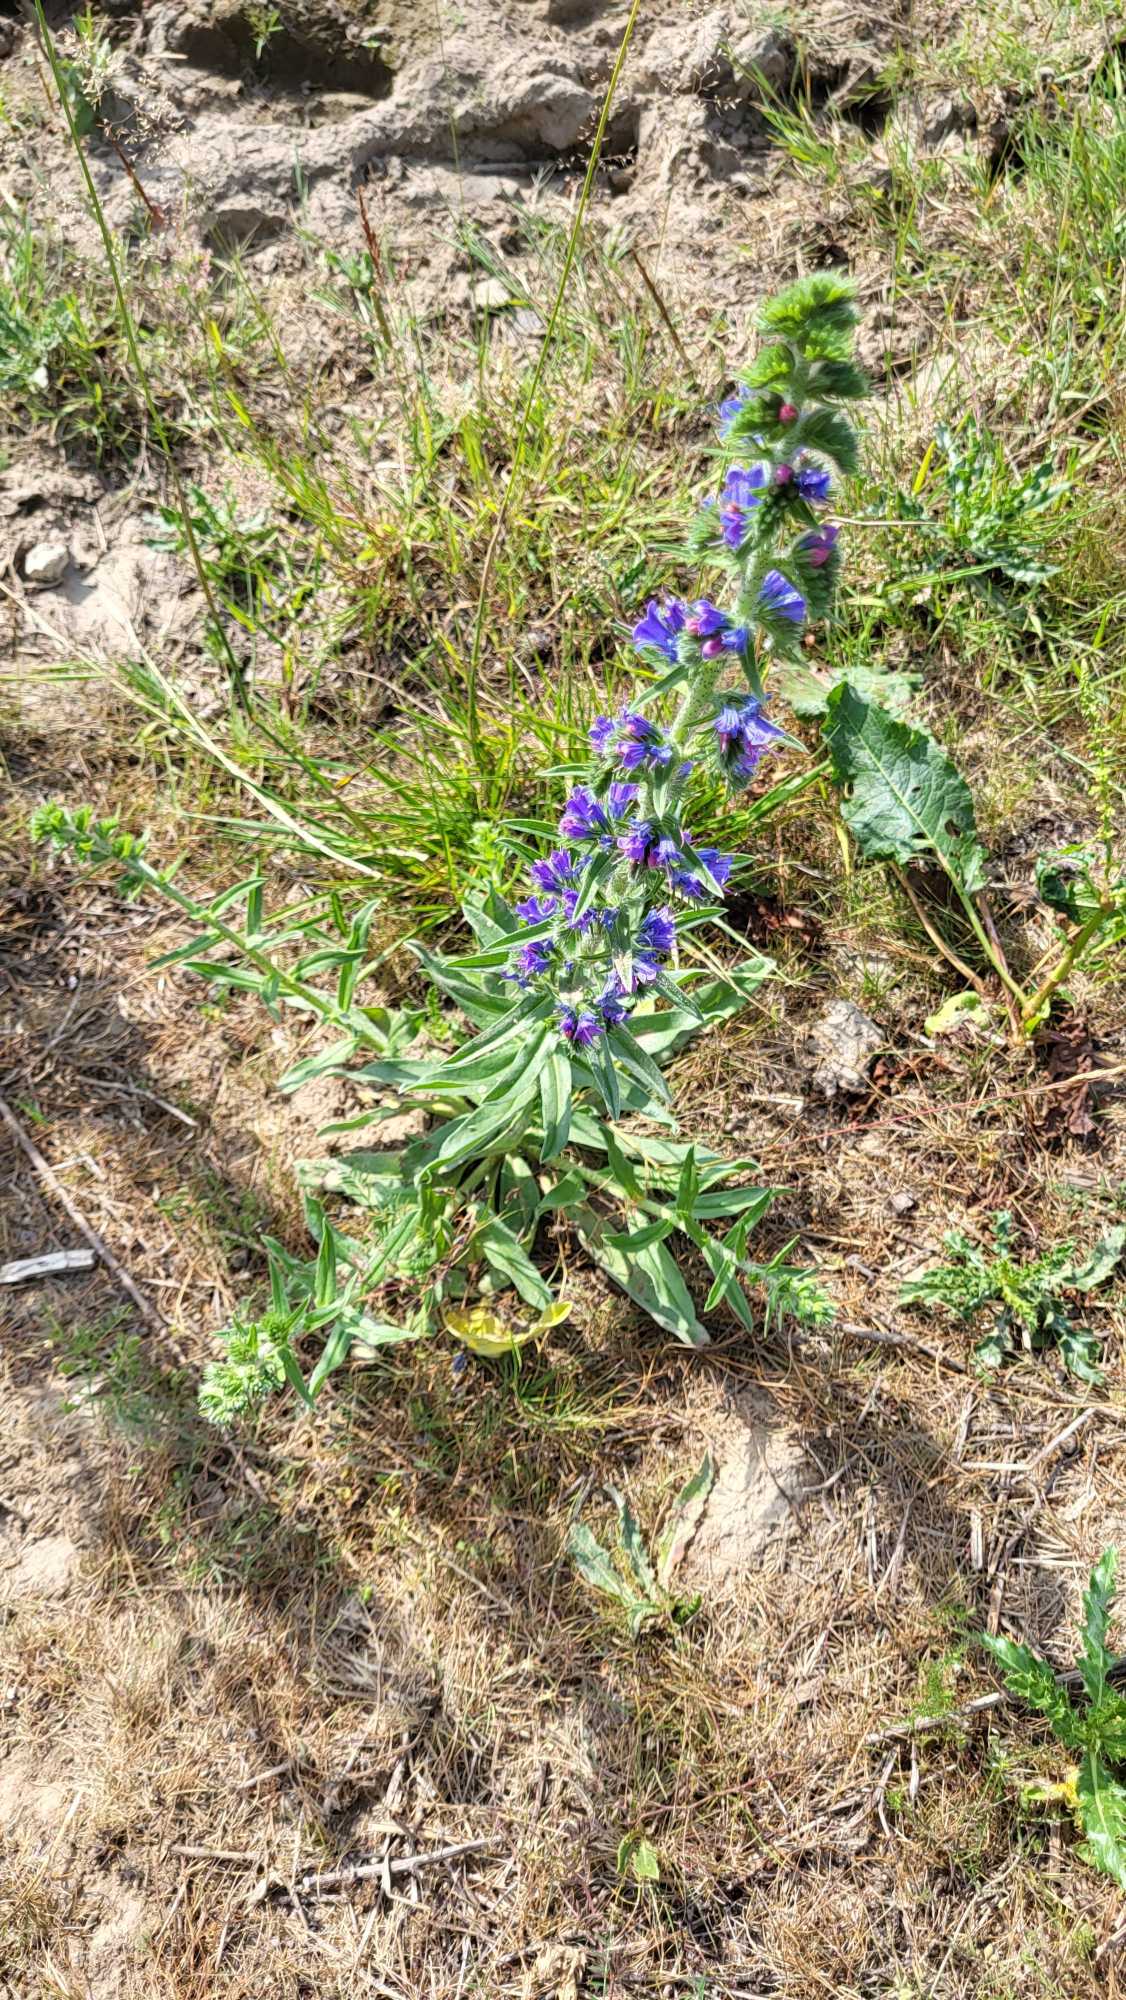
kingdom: Plantae
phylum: Tracheophyta
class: Magnoliopsida
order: Boraginales
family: Boraginaceae
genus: Echium
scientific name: Echium vulgare
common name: Slangehoved
